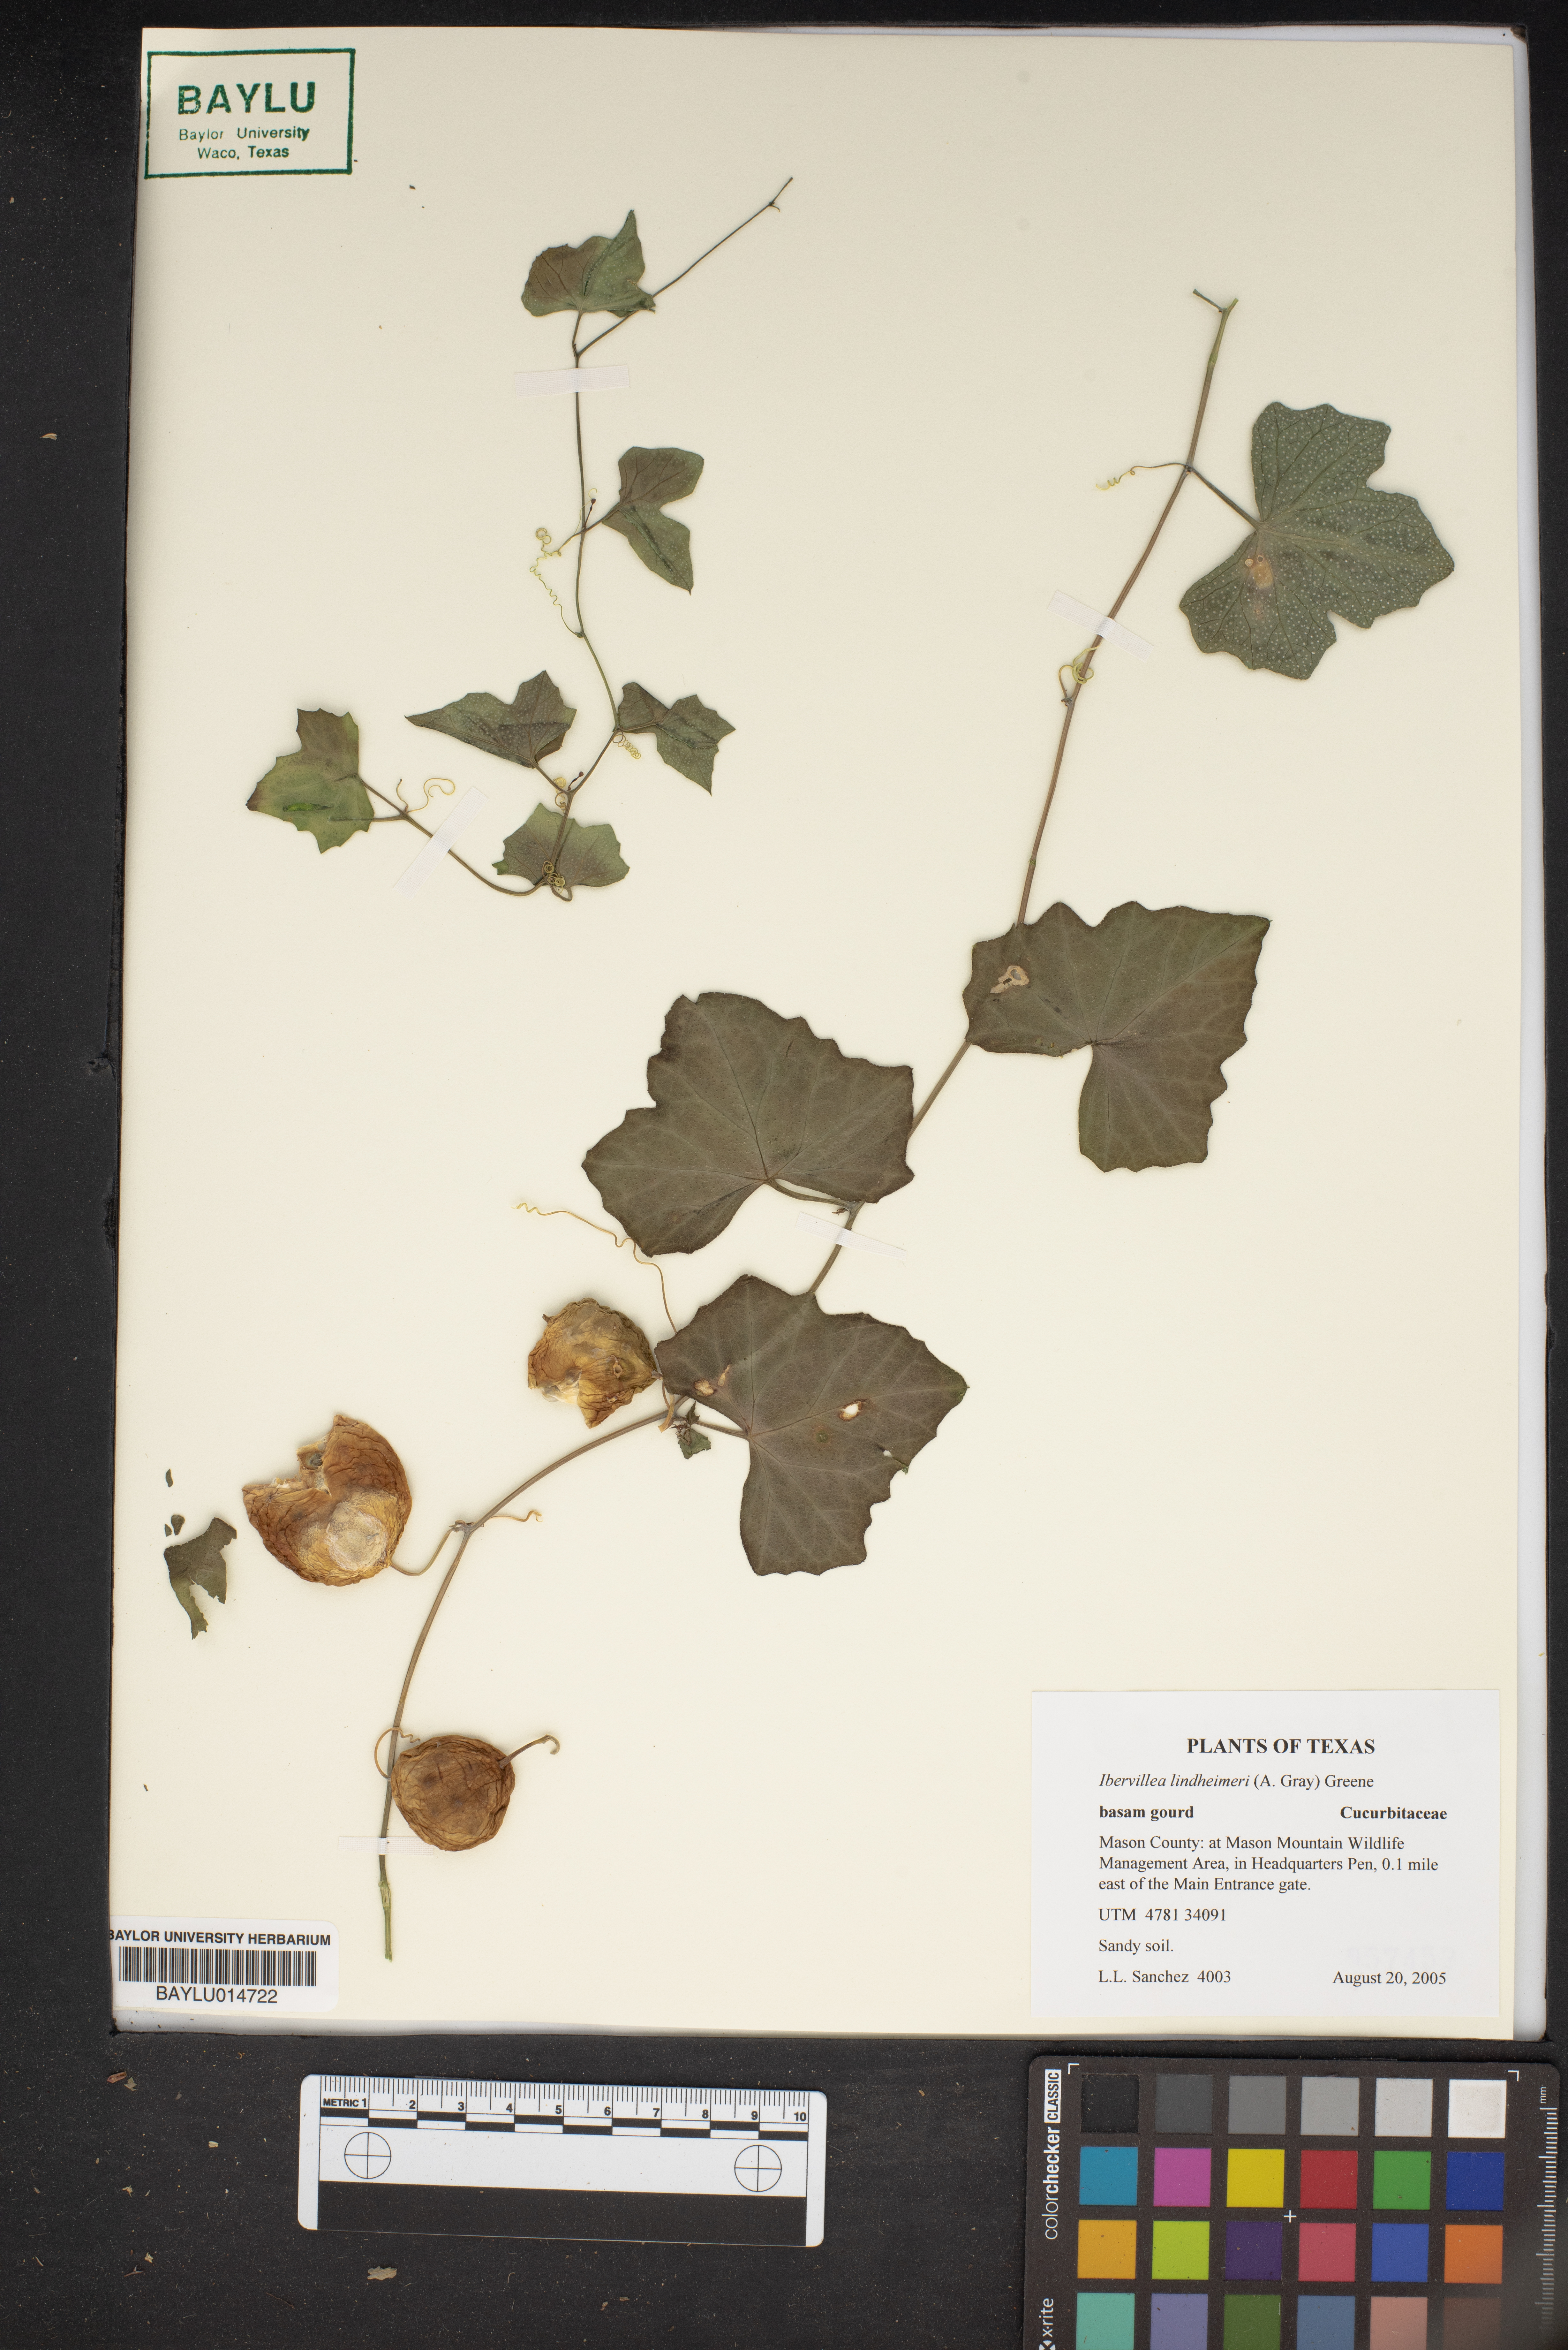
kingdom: Plantae
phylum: Tracheophyta
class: Magnoliopsida
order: Cucurbitales
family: Cucurbitaceae
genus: Ibervillea
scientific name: Ibervillea lindheimeri
